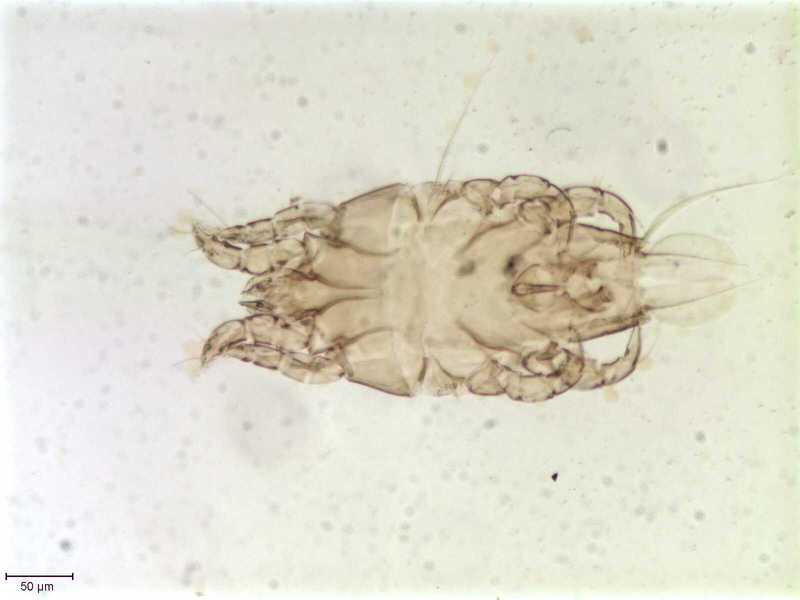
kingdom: Animalia
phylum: Arthropoda
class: Arachnida
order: Sarcoptiformes
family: Proctophyllodidae
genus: Proctophyllodes
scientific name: Proctophyllodes troncatus
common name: Mite
